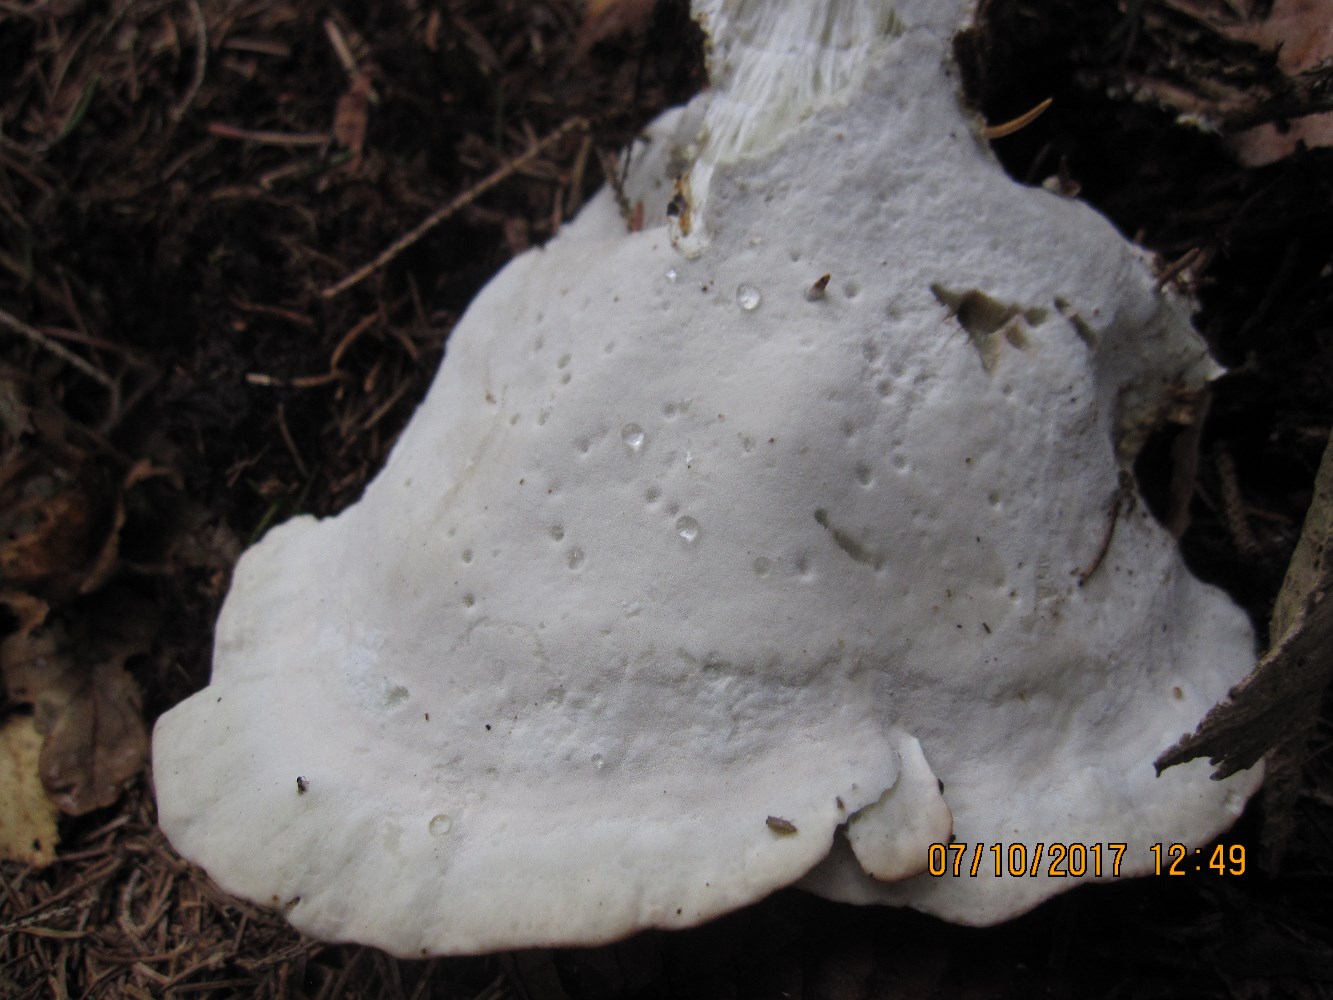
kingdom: Fungi
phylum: Basidiomycota
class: Agaricomycetes
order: Polyporales
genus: Calcipostia
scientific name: Calcipostia guttulata
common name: dråbe-kødporesvamp
